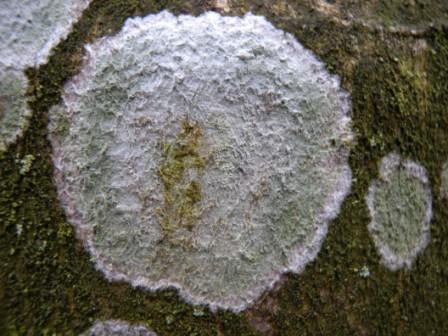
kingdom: Fungi
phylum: Ascomycota
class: Lecanoromycetes
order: Ostropales
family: Phlyctidaceae
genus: Phlyctis
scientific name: Phlyctis argena
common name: almindelig sølvlav
